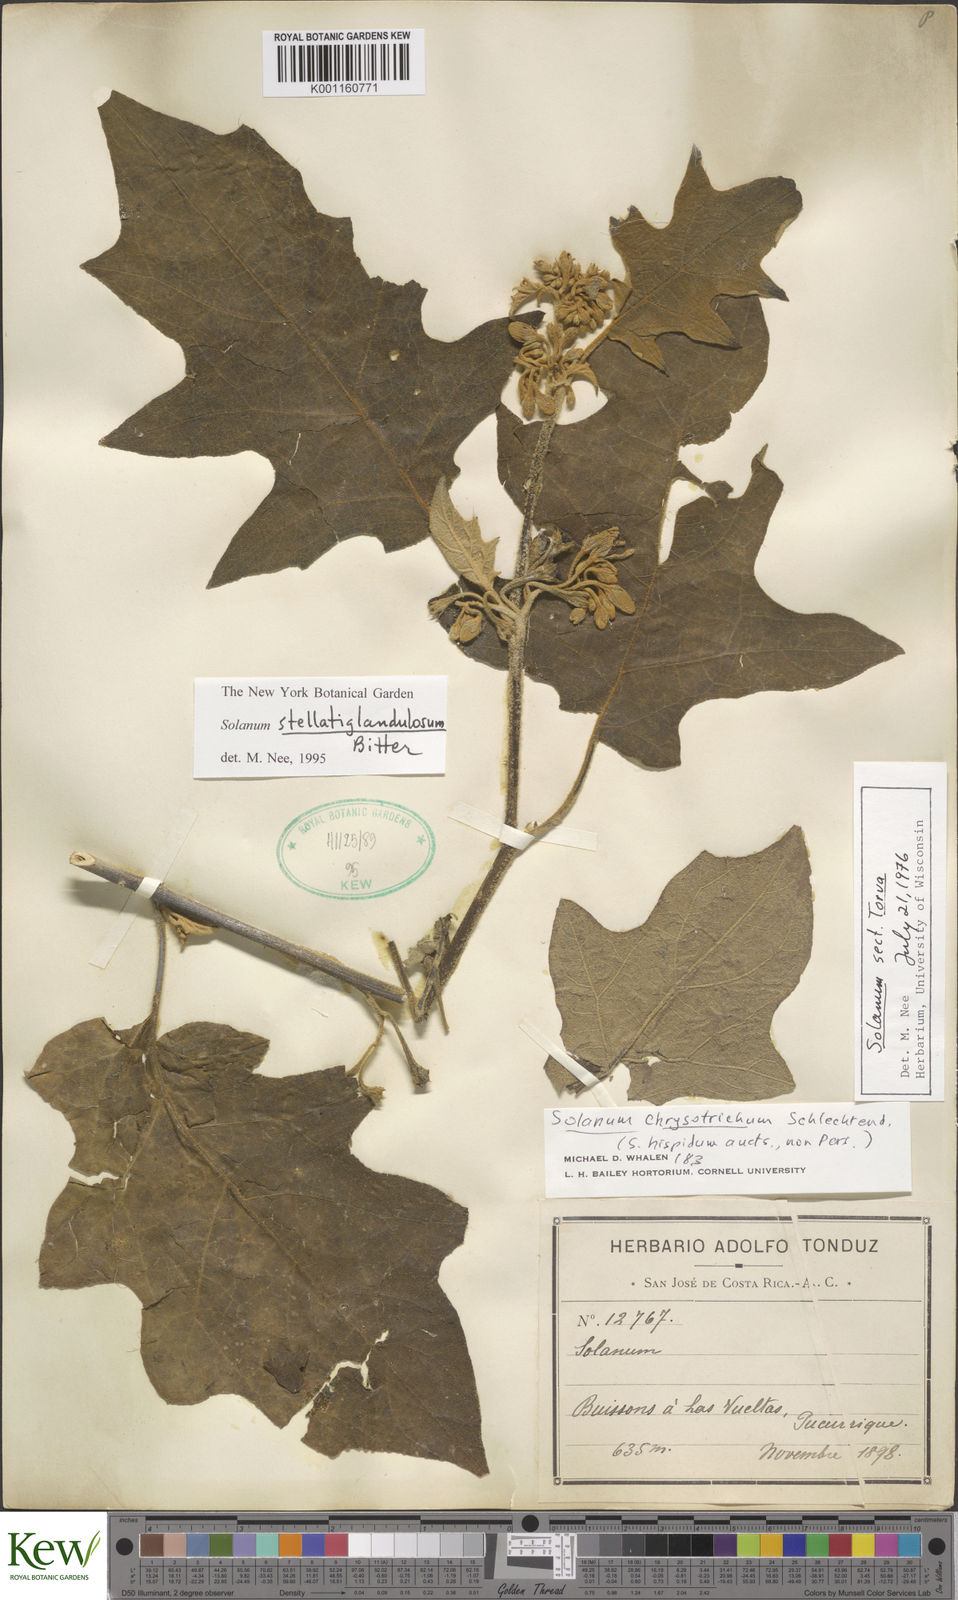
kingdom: Plantae
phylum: Tracheophyta
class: Magnoliopsida
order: Solanales
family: Solanaceae
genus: Solanum
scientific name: Solanum stellatiglandulosum
